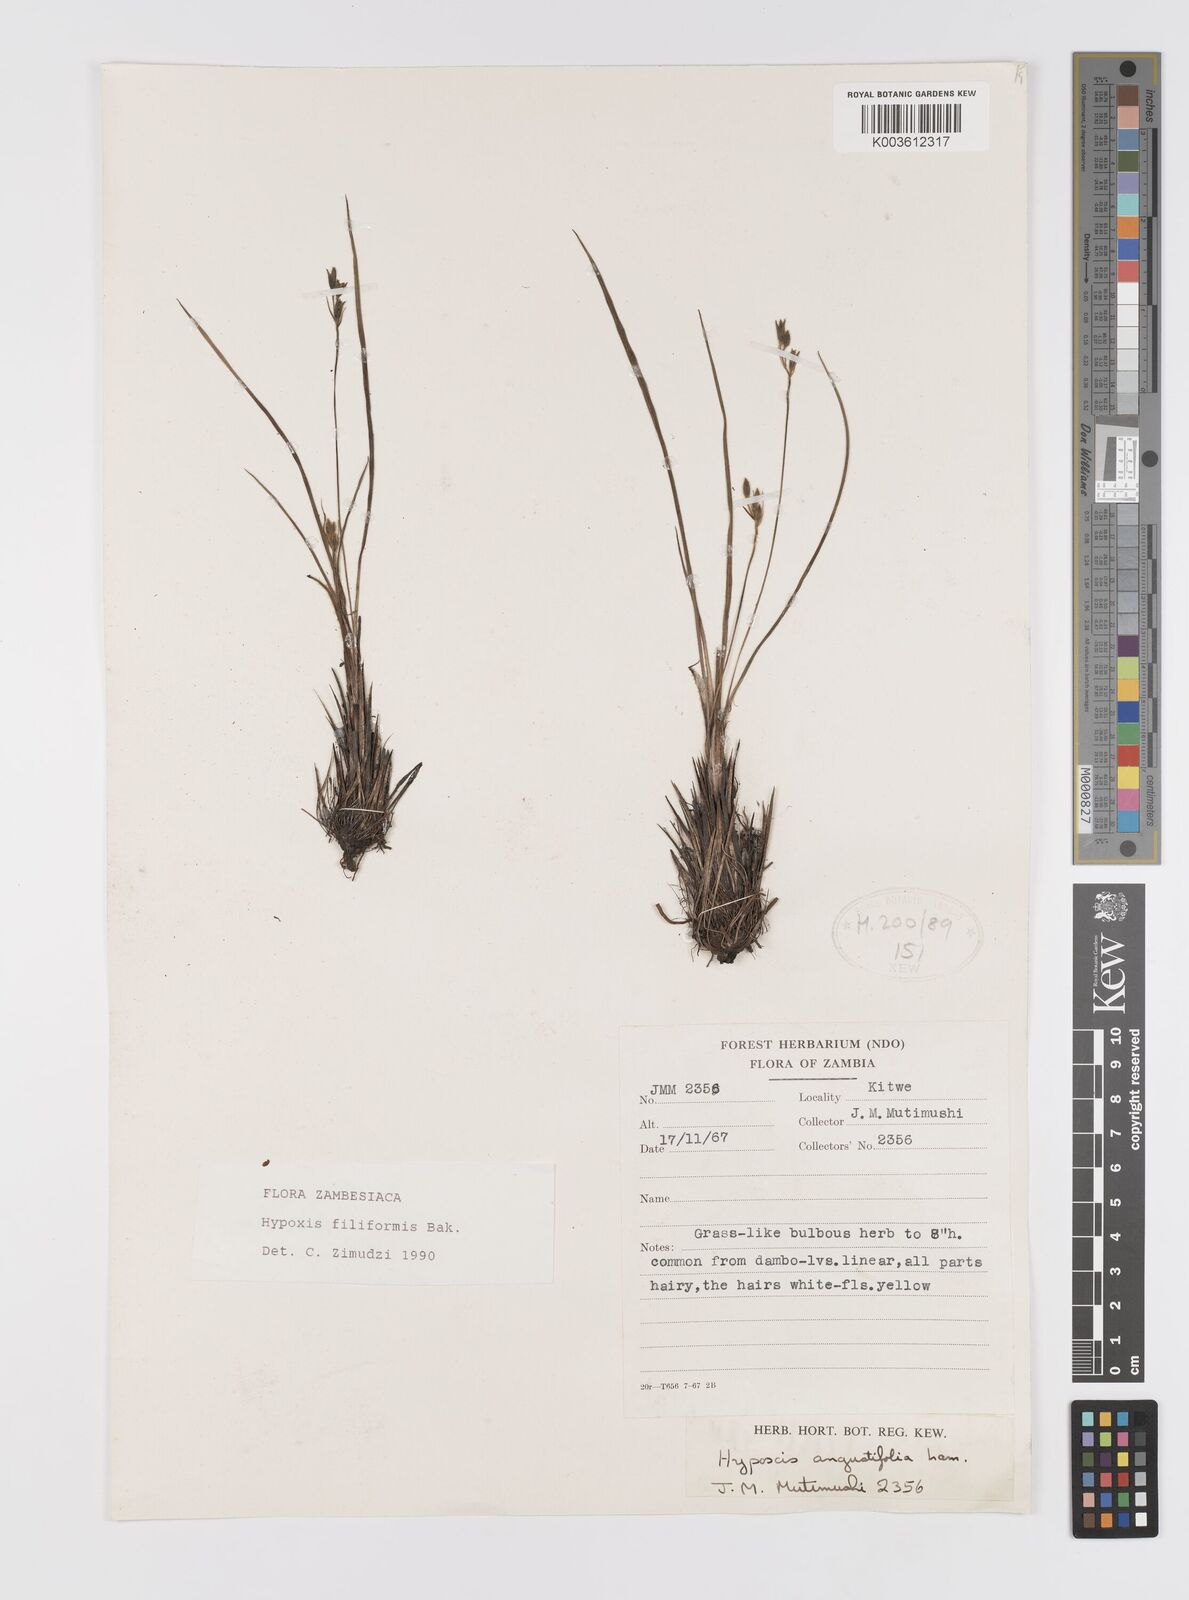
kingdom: Plantae
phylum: Tracheophyta
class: Liliopsida
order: Asparagales
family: Hypoxidaceae
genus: Hypoxis
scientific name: Hypoxis filiformis
